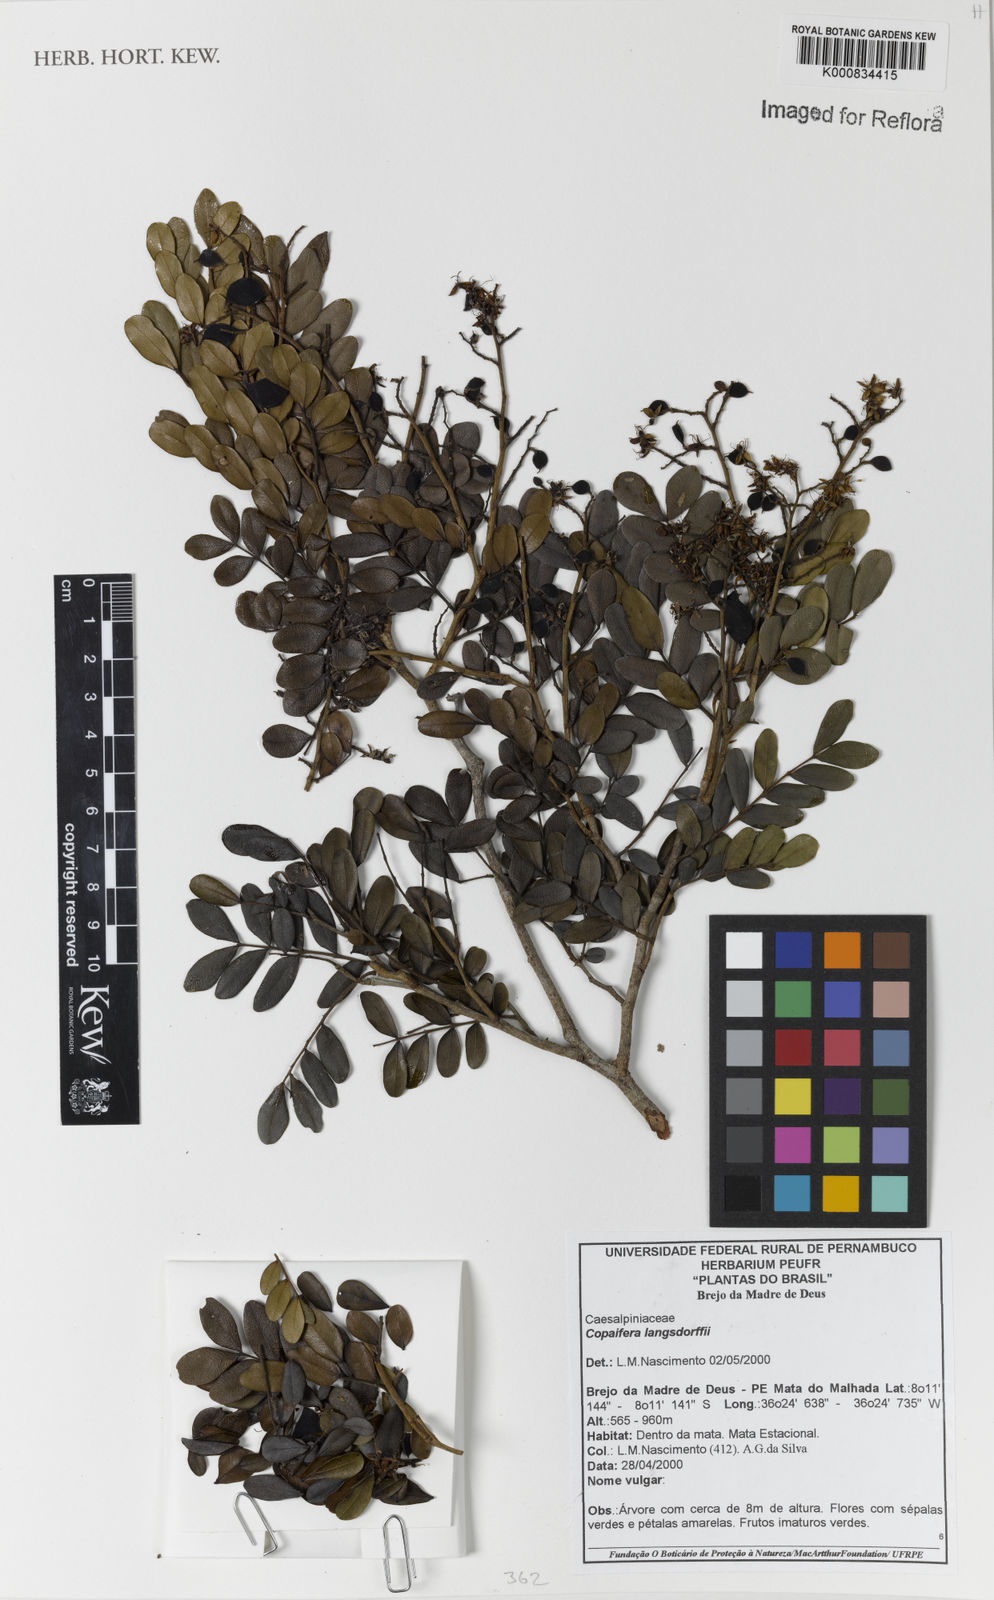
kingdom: Plantae
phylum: Tracheophyta
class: Magnoliopsida
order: Fabales
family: Fabaceae
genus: Copaifera
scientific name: Copaifera langsdorffii
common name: Brazilian diesel tree
